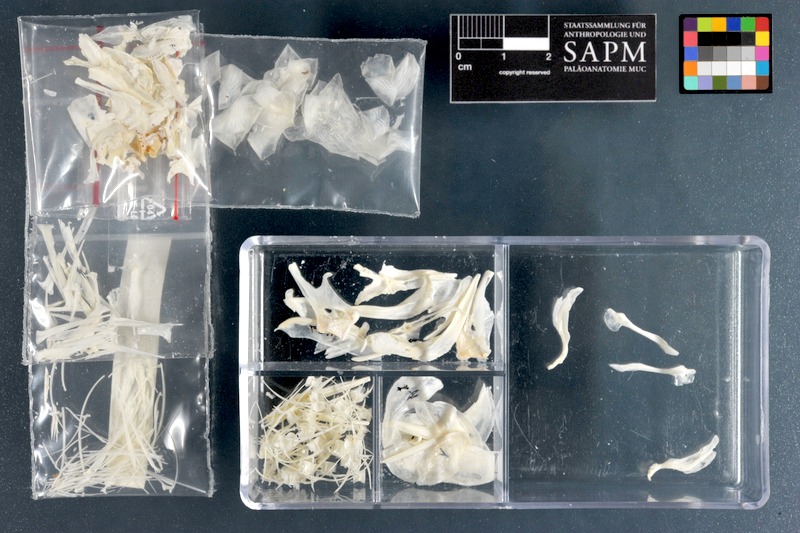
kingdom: Animalia
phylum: Chordata
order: Clupeiformes
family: Clupeidae
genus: Sardinella
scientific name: Sardinella maderensis
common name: Madeiran sardinella
